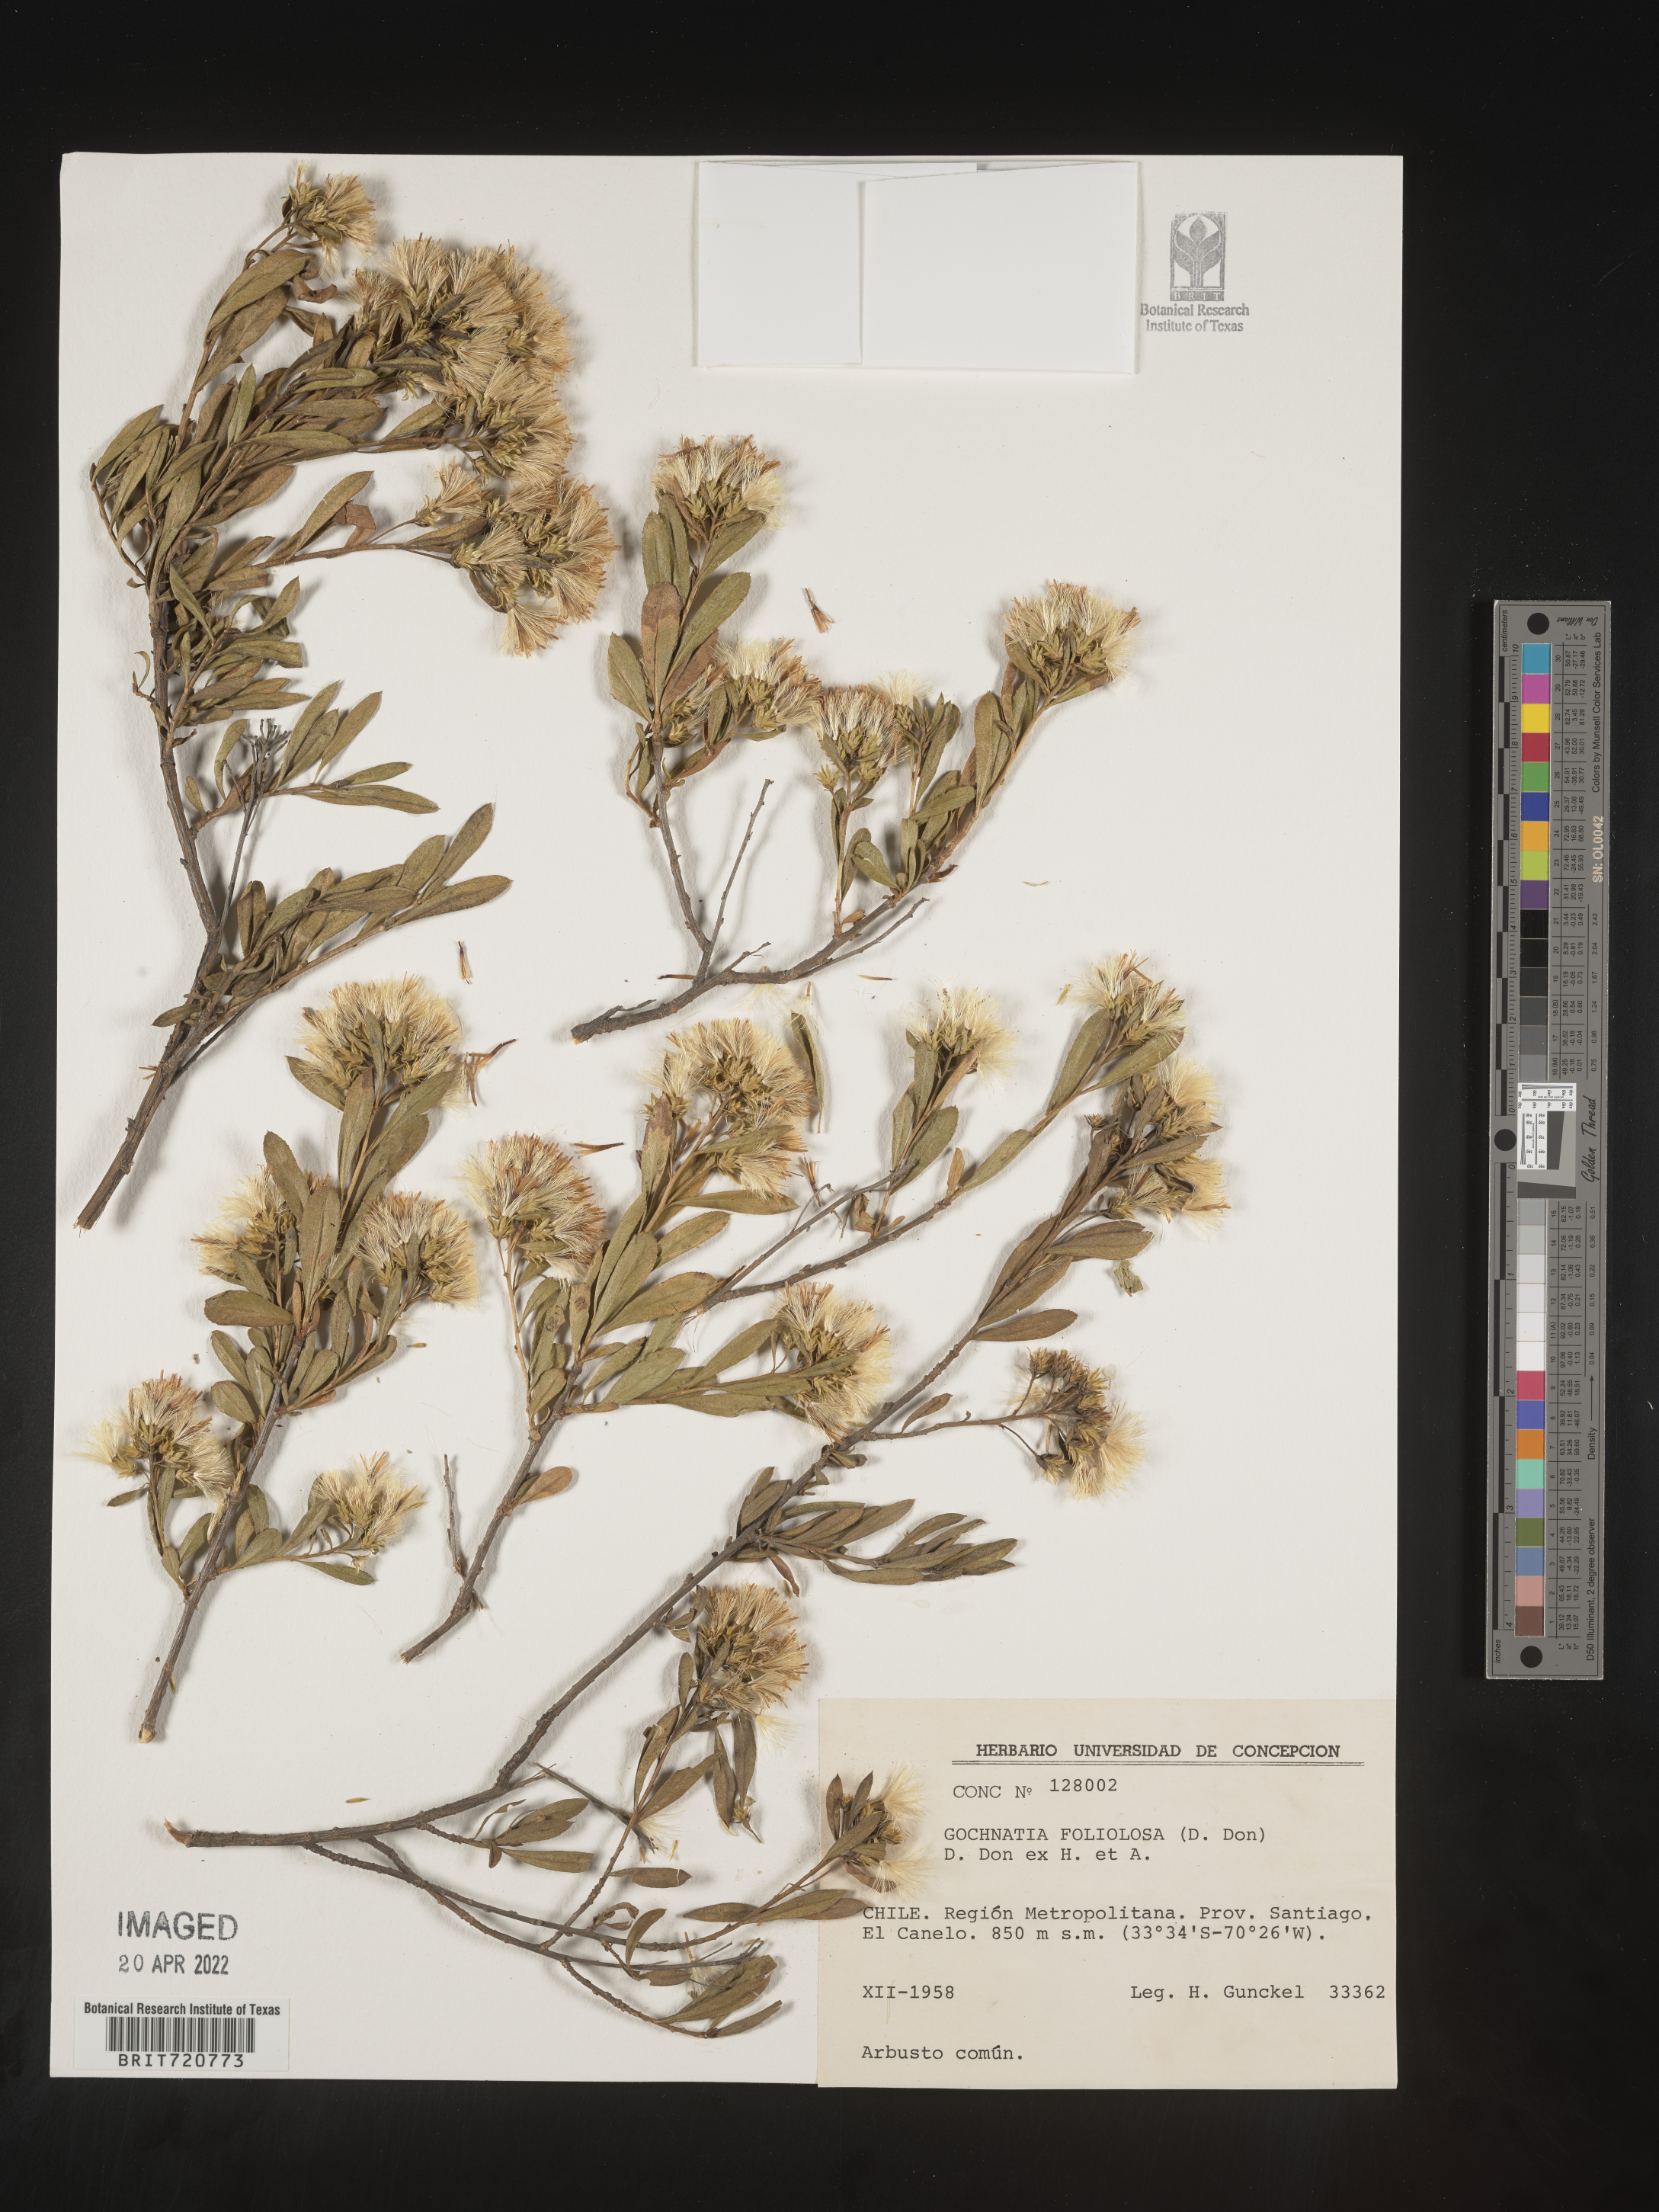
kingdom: Plantae
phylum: Tracheophyta
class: Magnoliopsida
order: Asterales
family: Asteraceae
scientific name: Asteraceae
